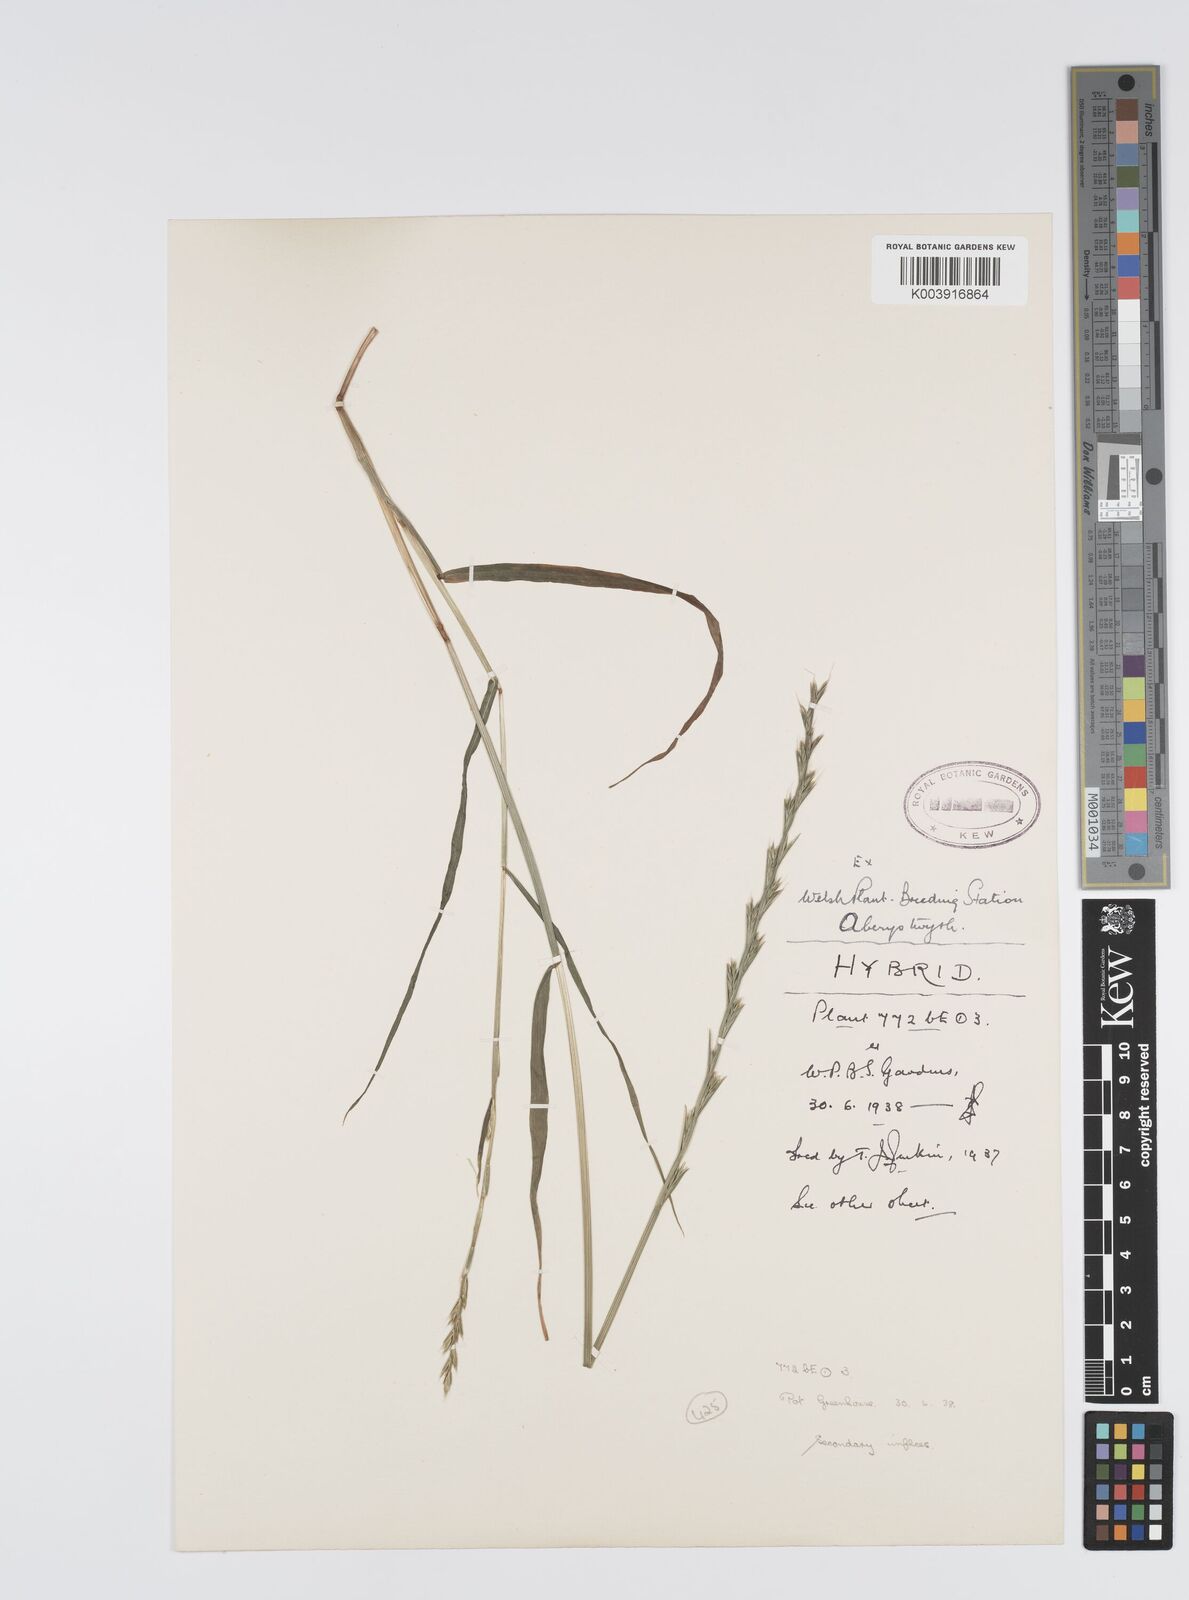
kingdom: Plantae
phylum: Tracheophyta
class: Liliopsida
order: Poales
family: Poaceae
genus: Lolium
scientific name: Lolium multiflorum
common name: Annual ryegrass
